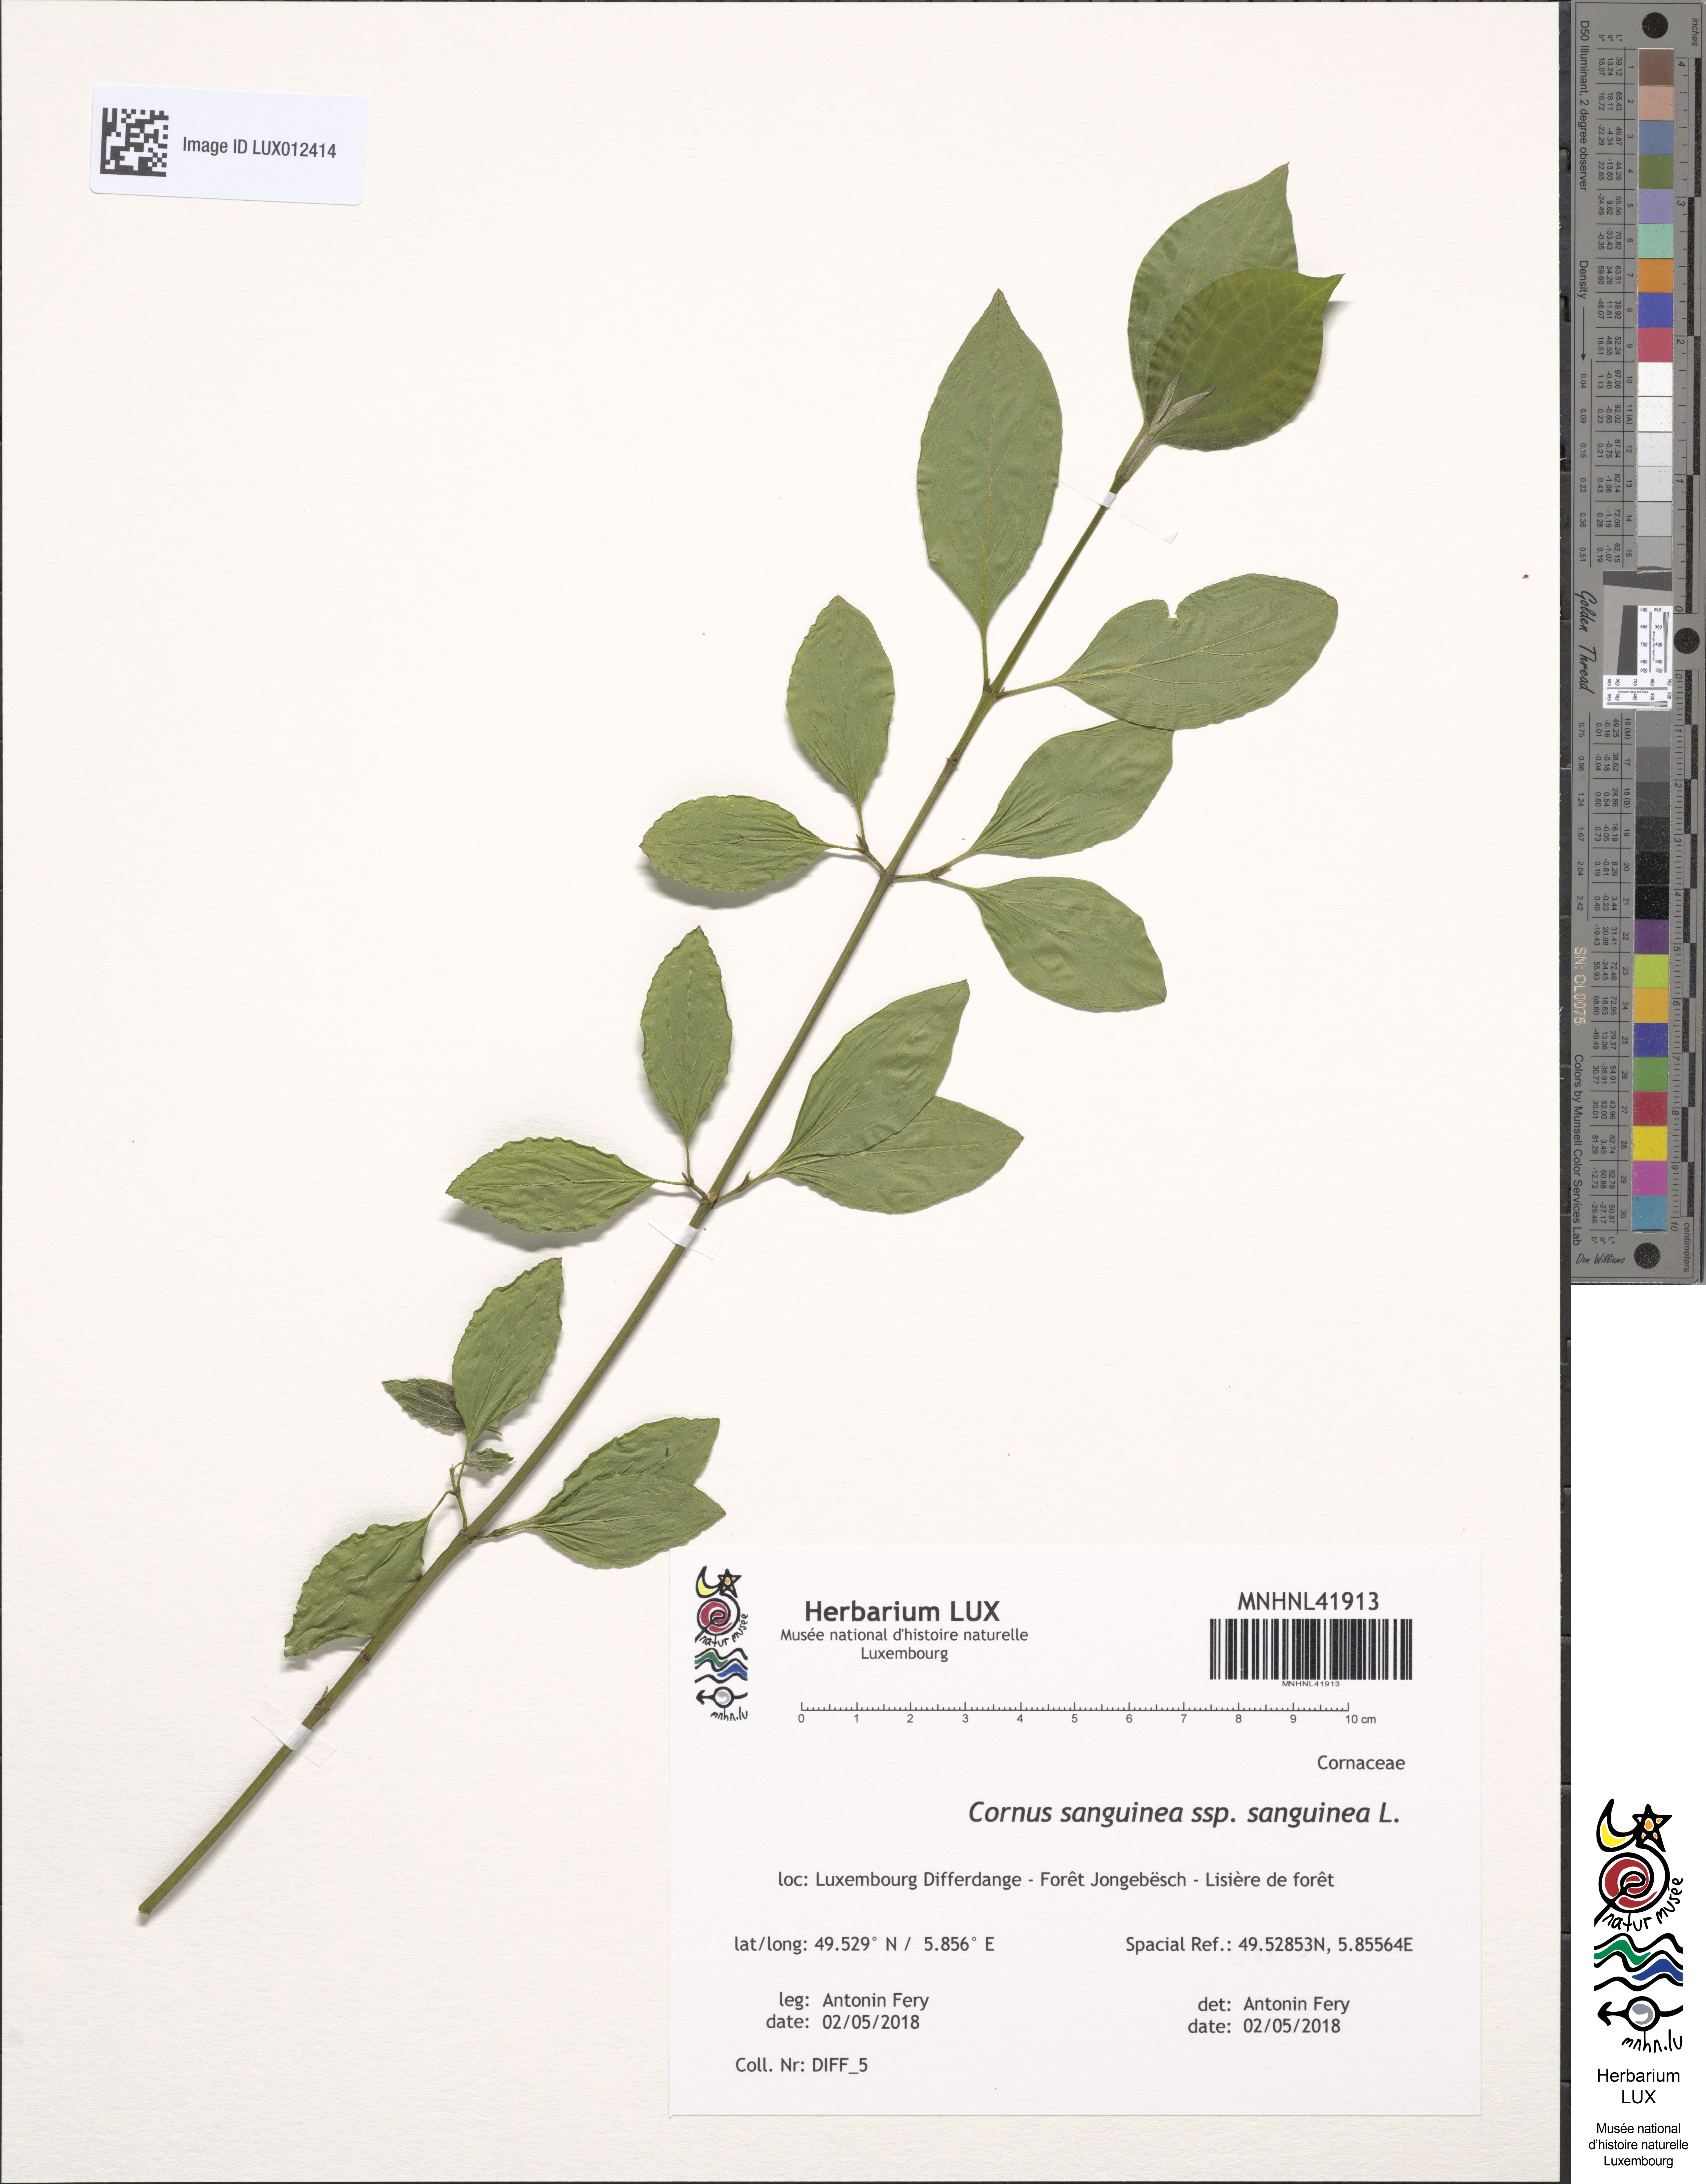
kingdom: Plantae
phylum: Tracheophyta
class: Magnoliopsida
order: Cornales
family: Cornaceae
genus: Cornus
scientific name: Cornus sanguinea
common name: Dogwood
